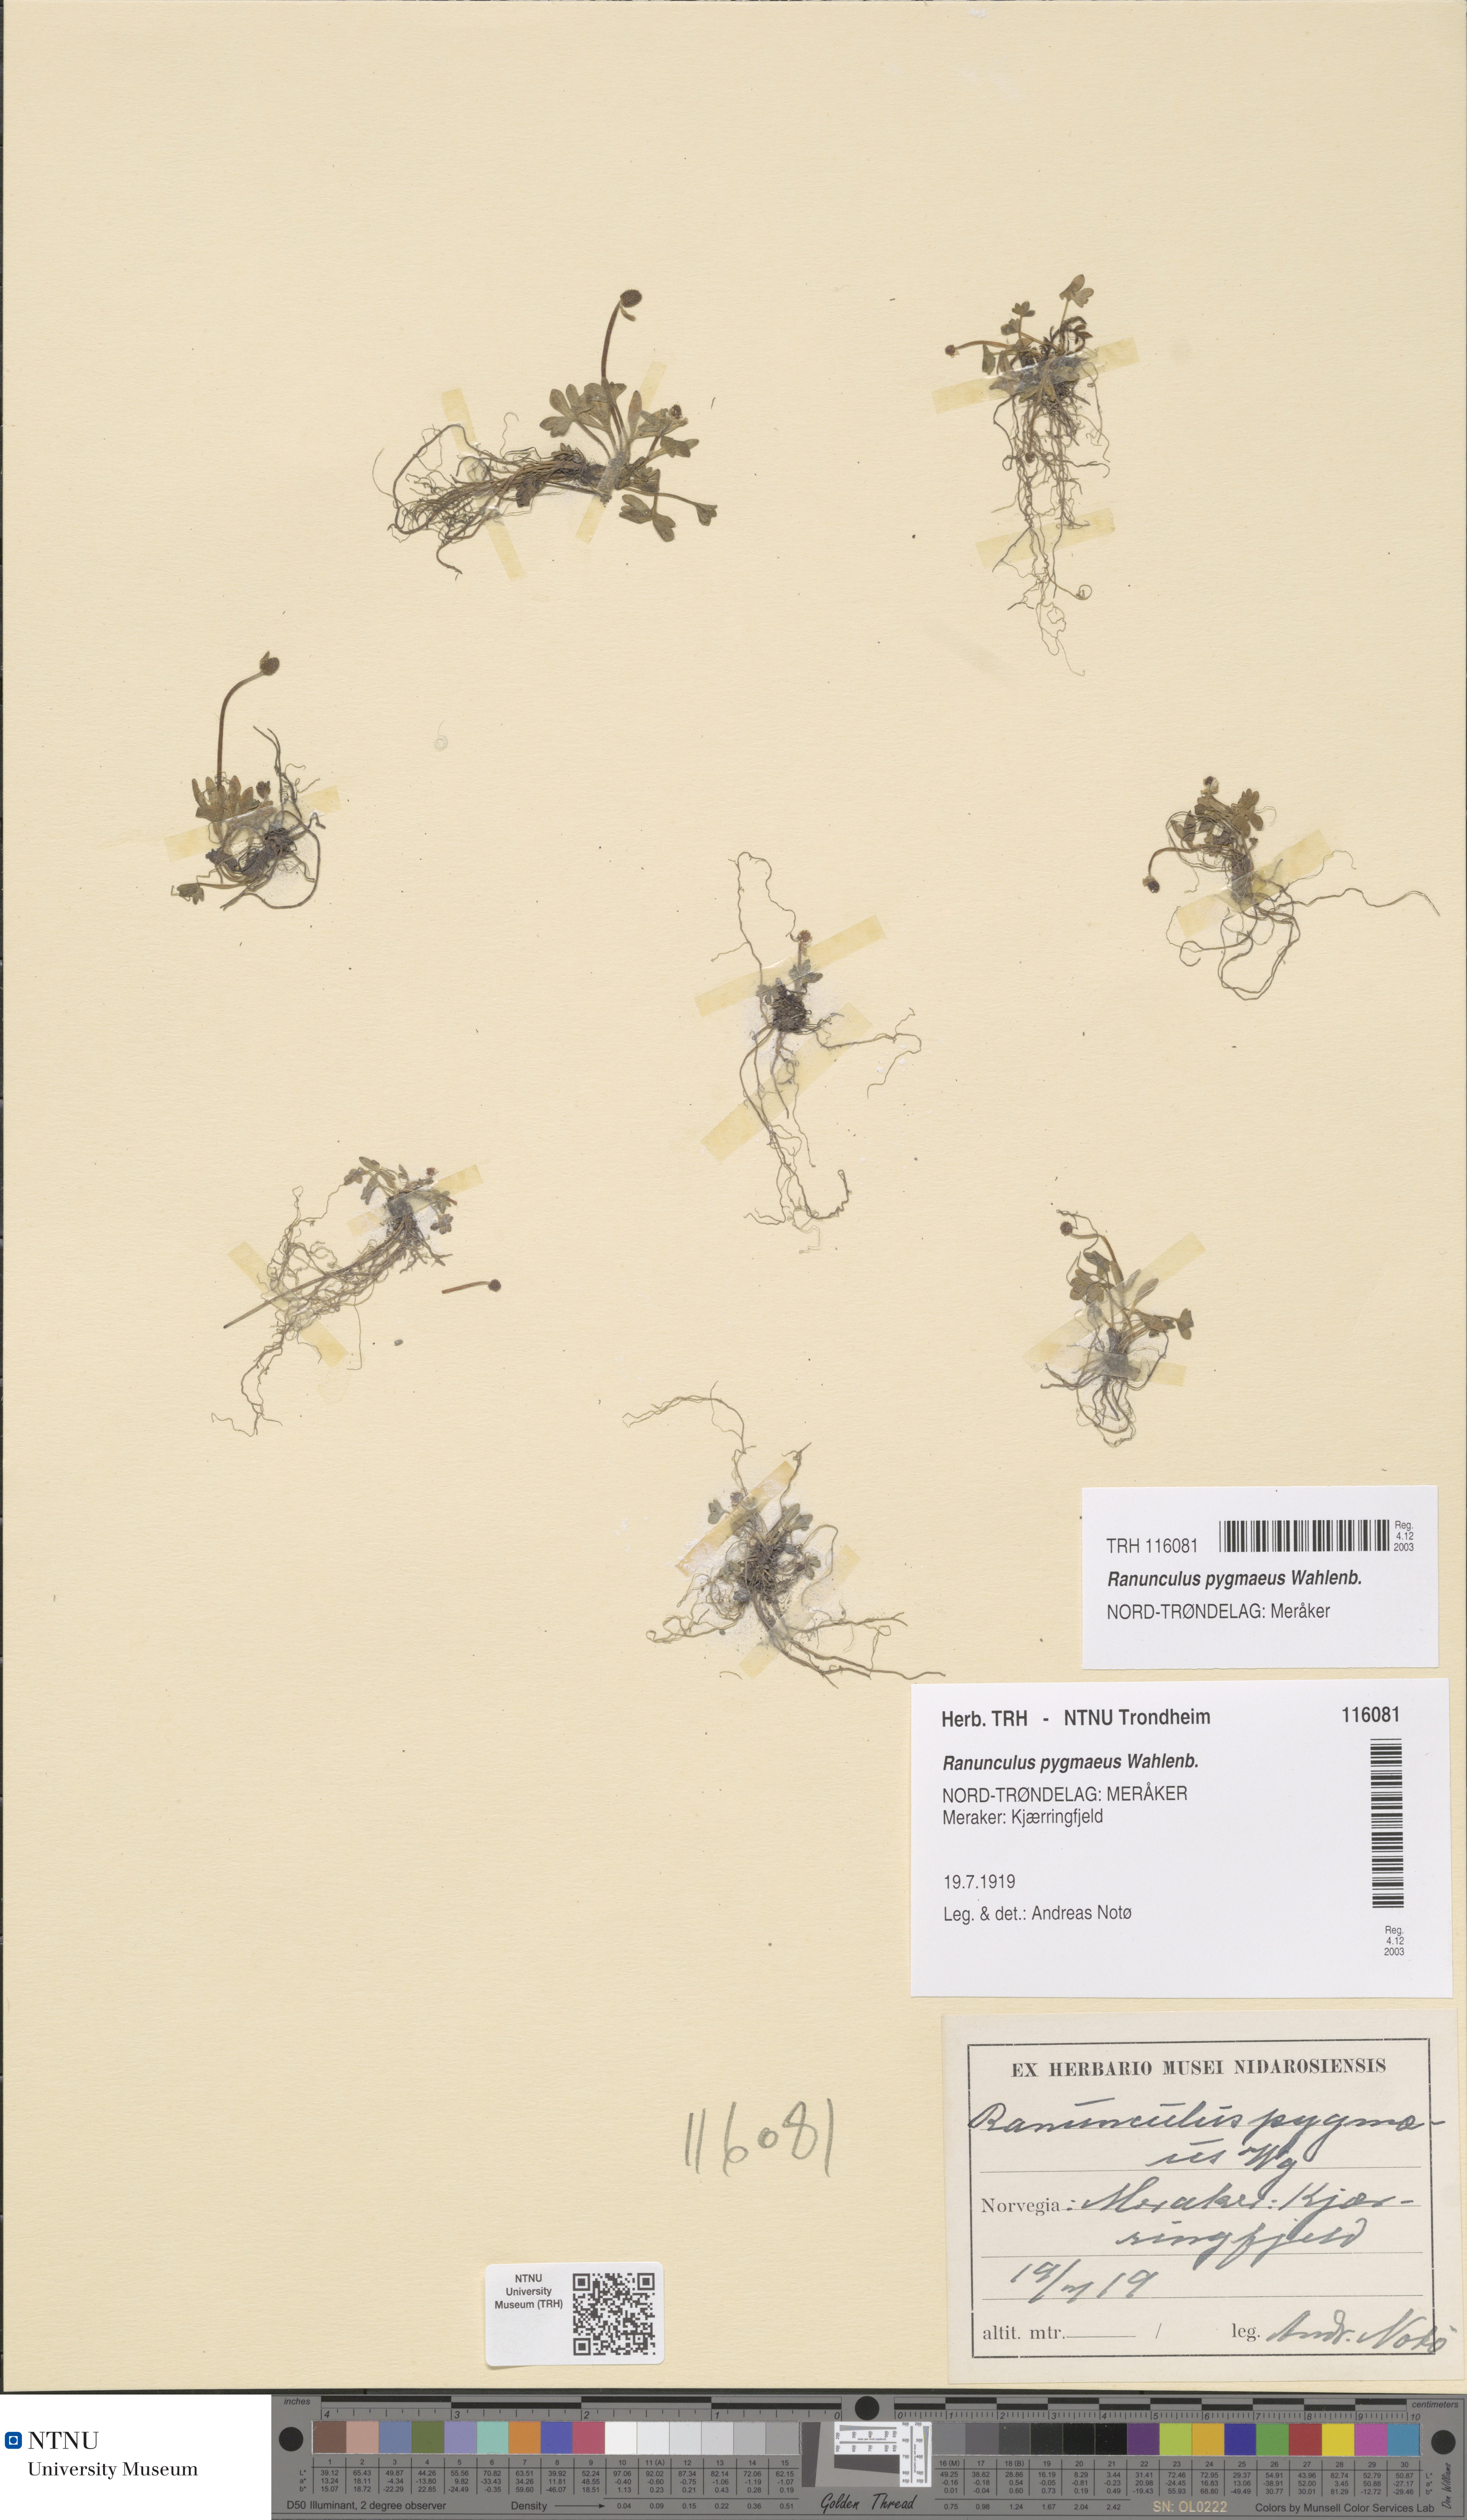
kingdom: Plantae
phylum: Tracheophyta
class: Magnoliopsida
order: Ranunculales
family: Ranunculaceae
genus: Ranunculus
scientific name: Ranunculus pygmaeus
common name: Dwarf buttercup
